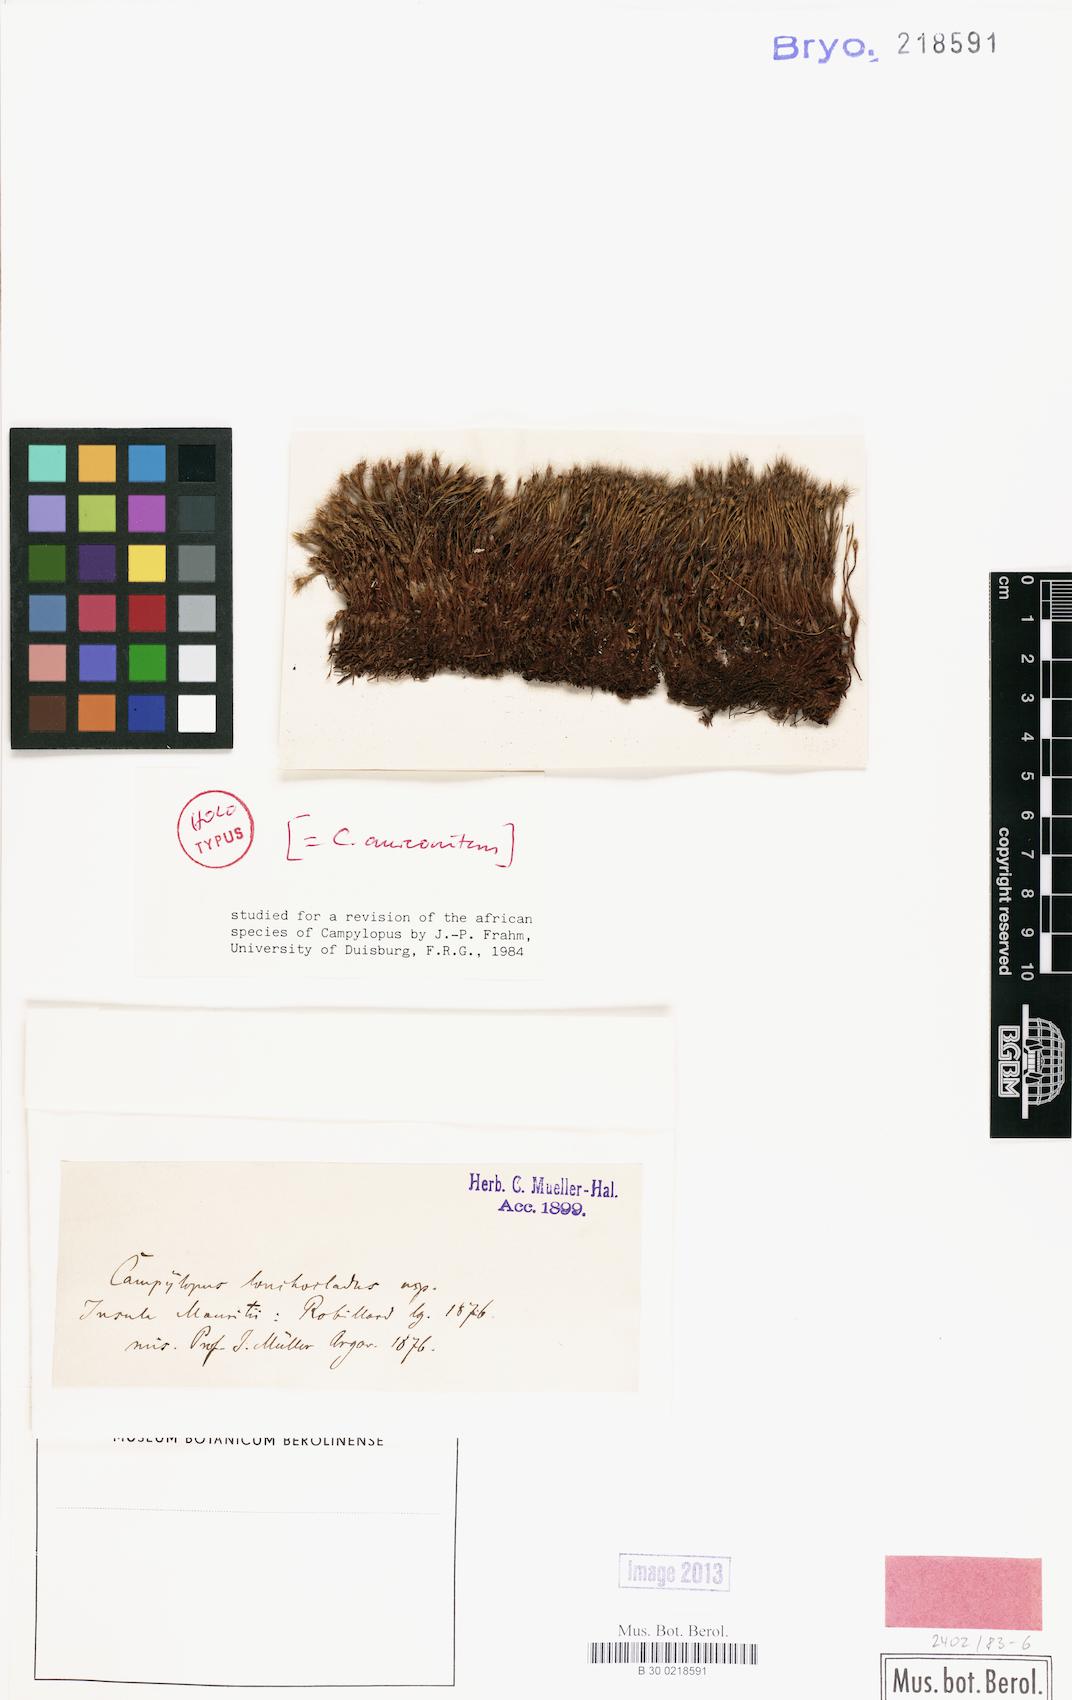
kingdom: Plantae
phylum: Bryophyta
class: Bryopsida
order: Dicranales
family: Leucobryaceae
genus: Campylopus
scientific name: Campylopus aureonitens
